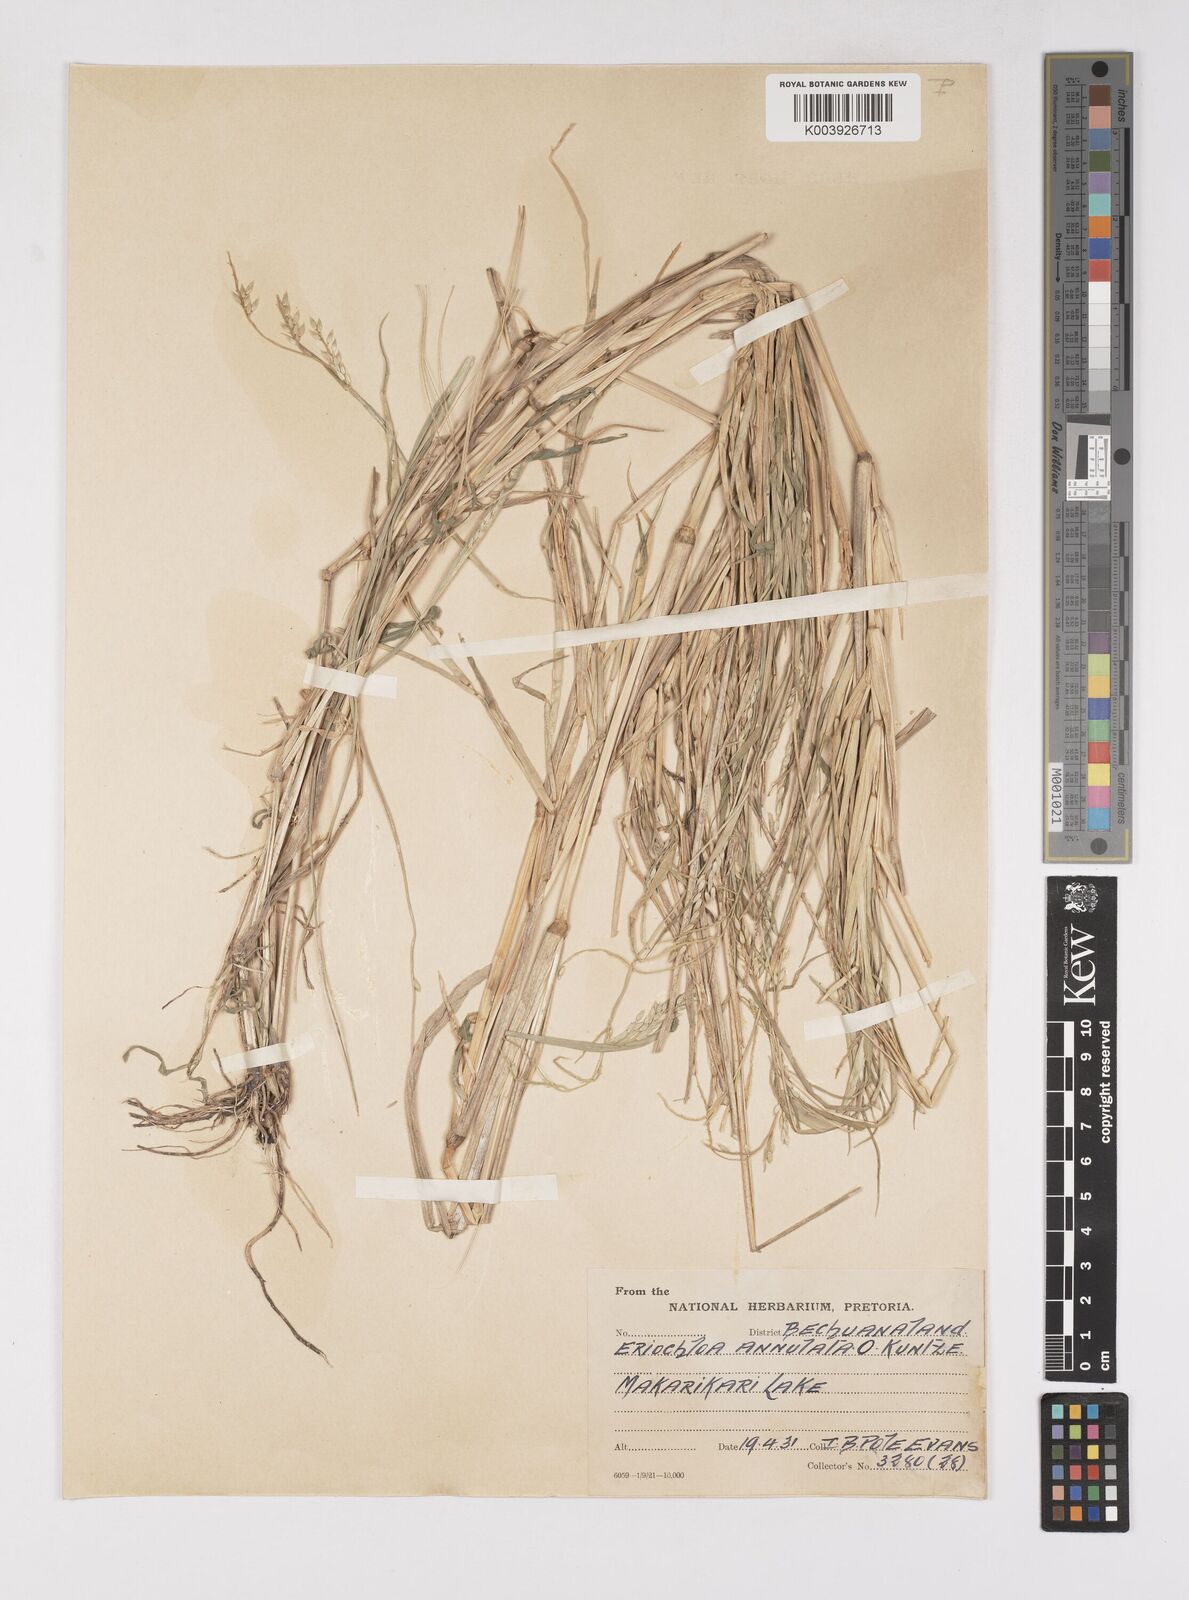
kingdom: Plantae
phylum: Tracheophyta
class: Liliopsida
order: Poales
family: Poaceae
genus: Eriochloa
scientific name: Eriochloa barbatus
